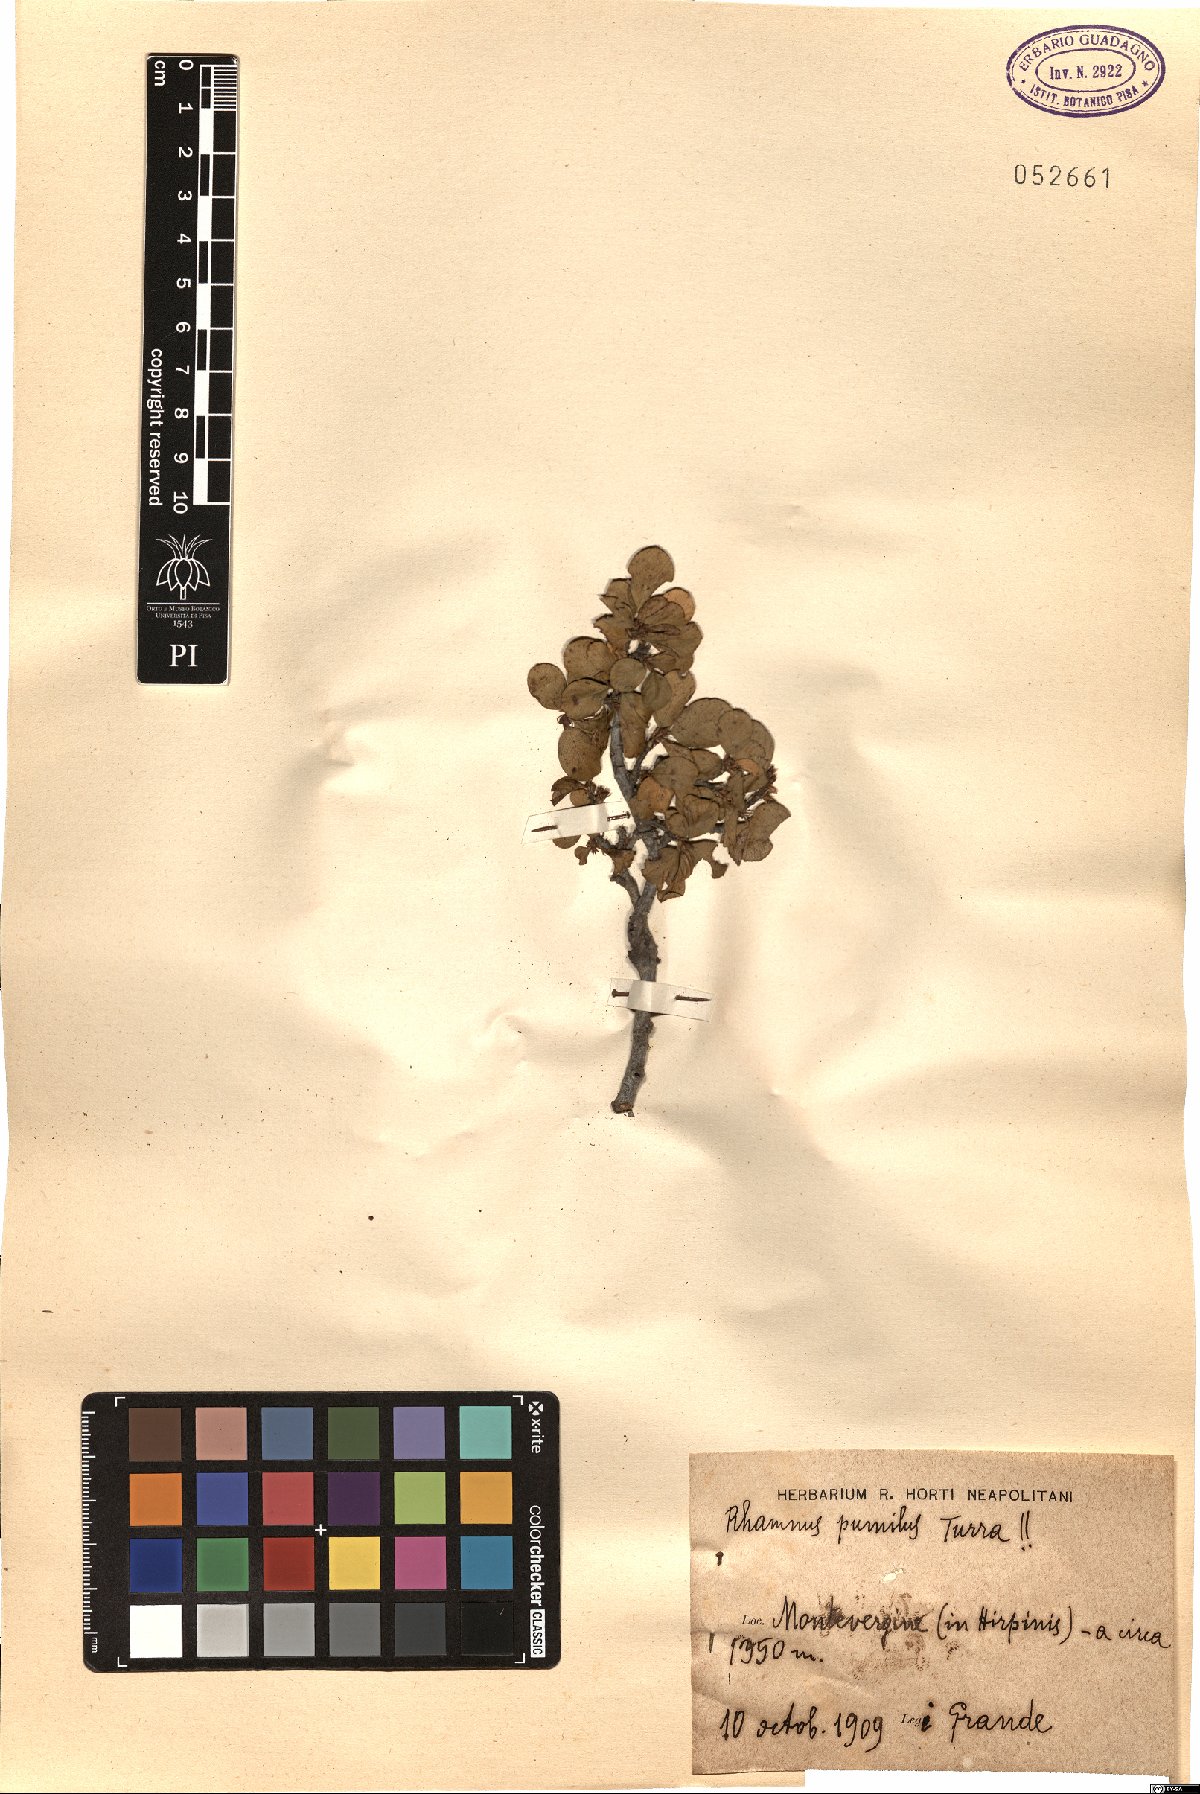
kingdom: Plantae
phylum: Tracheophyta
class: Magnoliopsida
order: Rosales
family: Rhamnaceae
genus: Atadinus
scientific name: Atadinus pumilus
